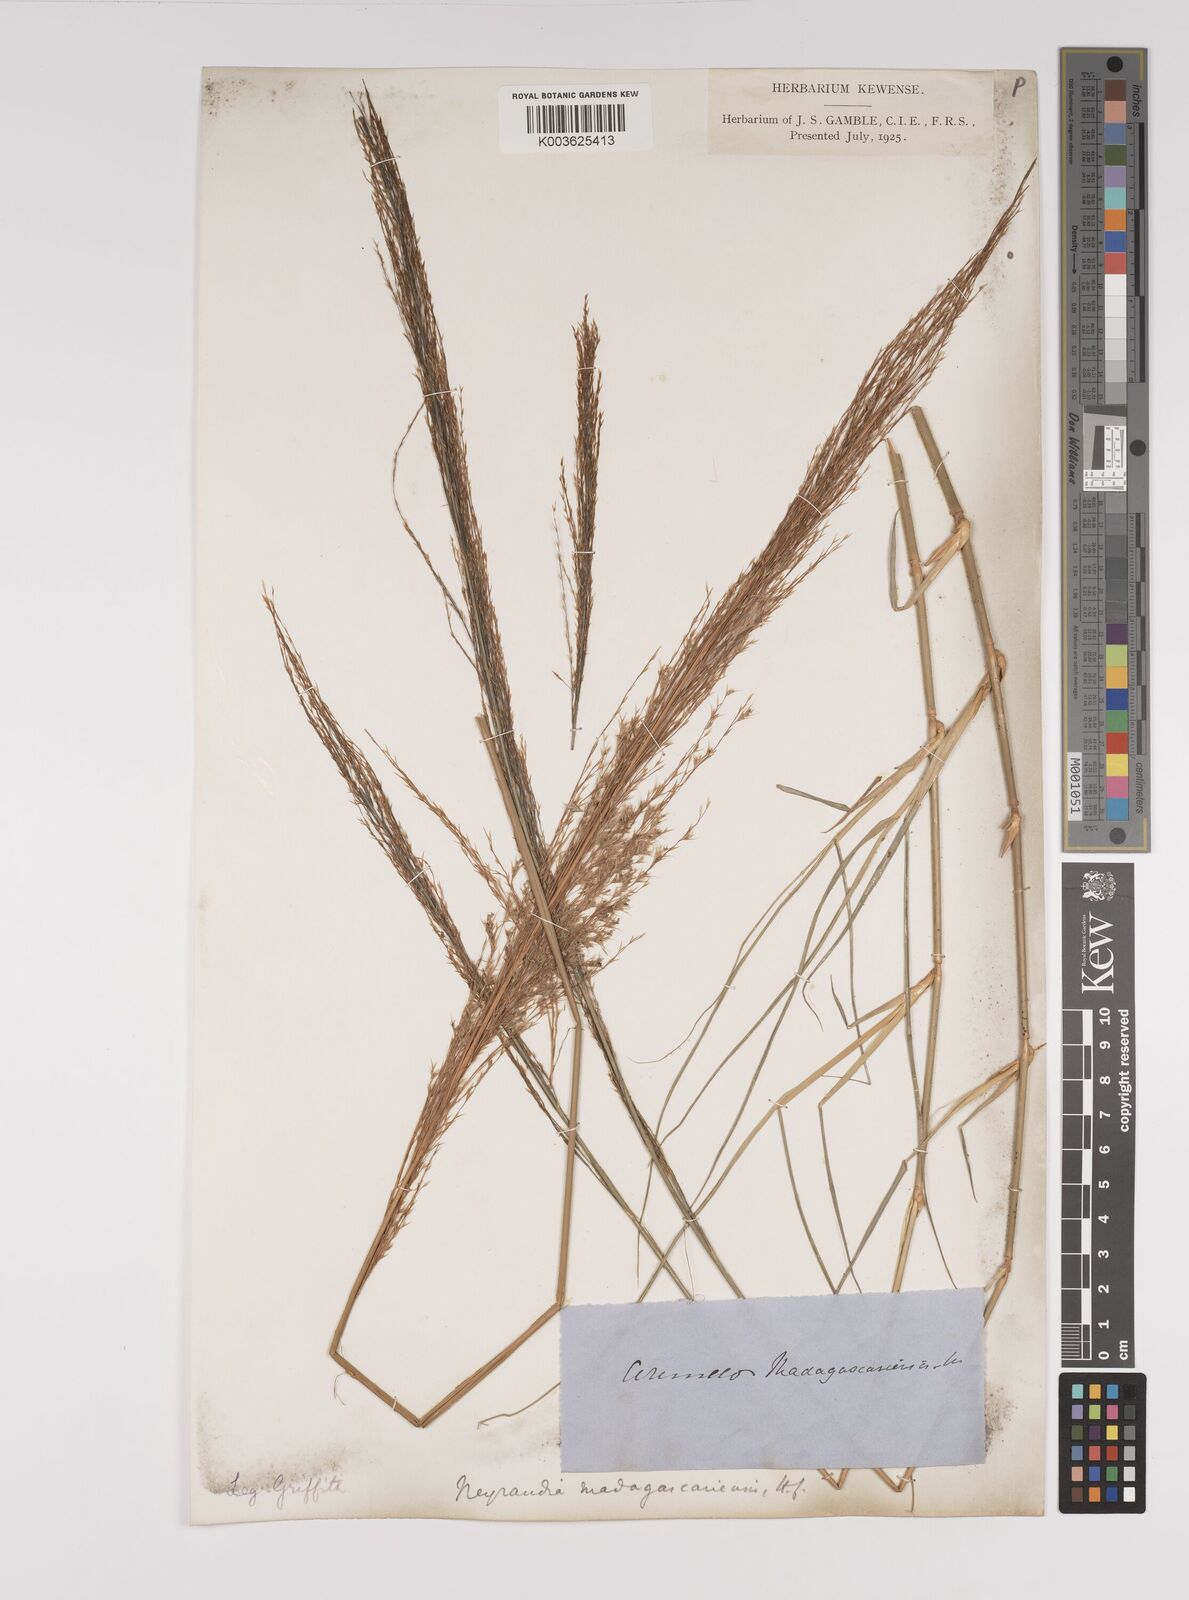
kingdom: Plantae
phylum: Tracheophyta
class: Liliopsida
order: Poales
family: Poaceae
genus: Neyraudia
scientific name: Neyraudia reynaudiana
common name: Silkreed
